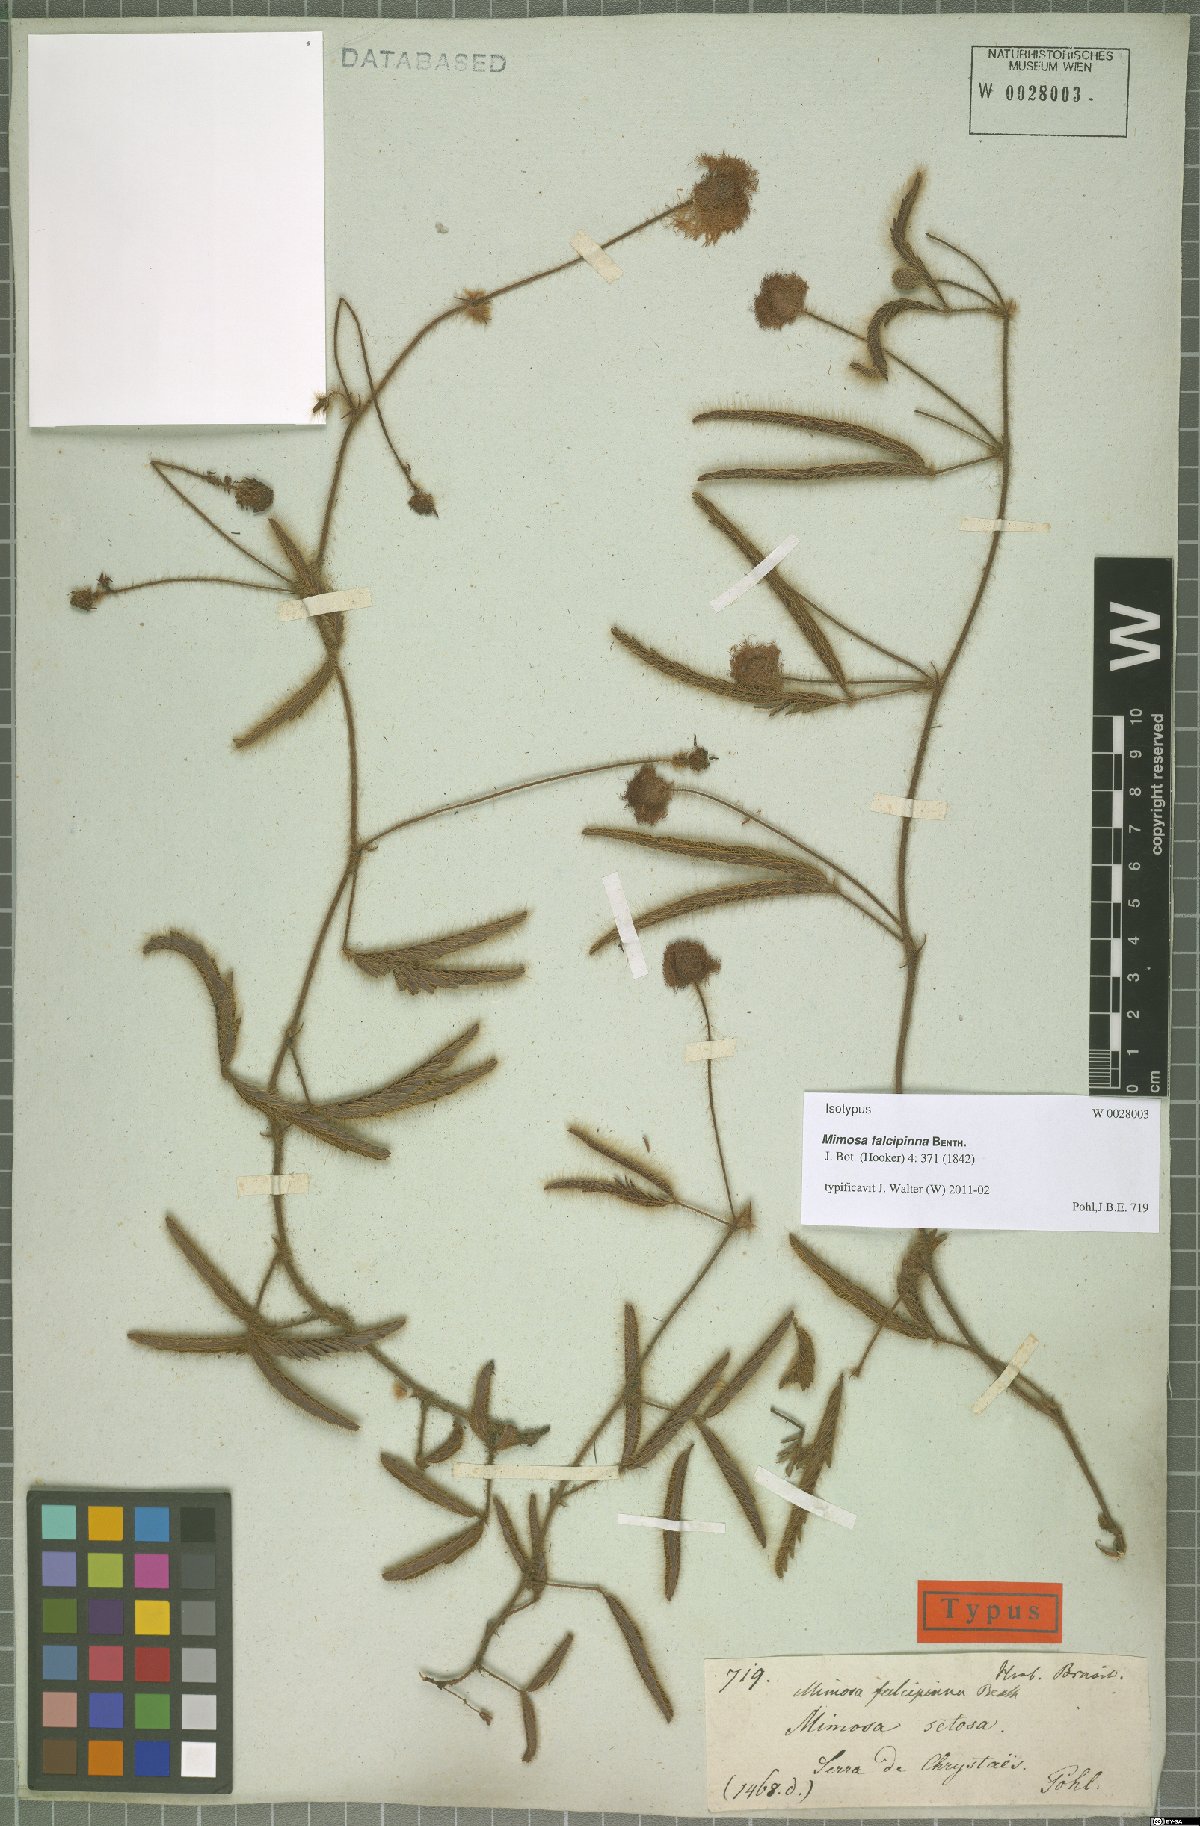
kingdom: Plantae
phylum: Tracheophyta
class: Magnoliopsida
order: Fabales
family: Fabaceae
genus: Mimosa
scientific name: Mimosa falcipinna
